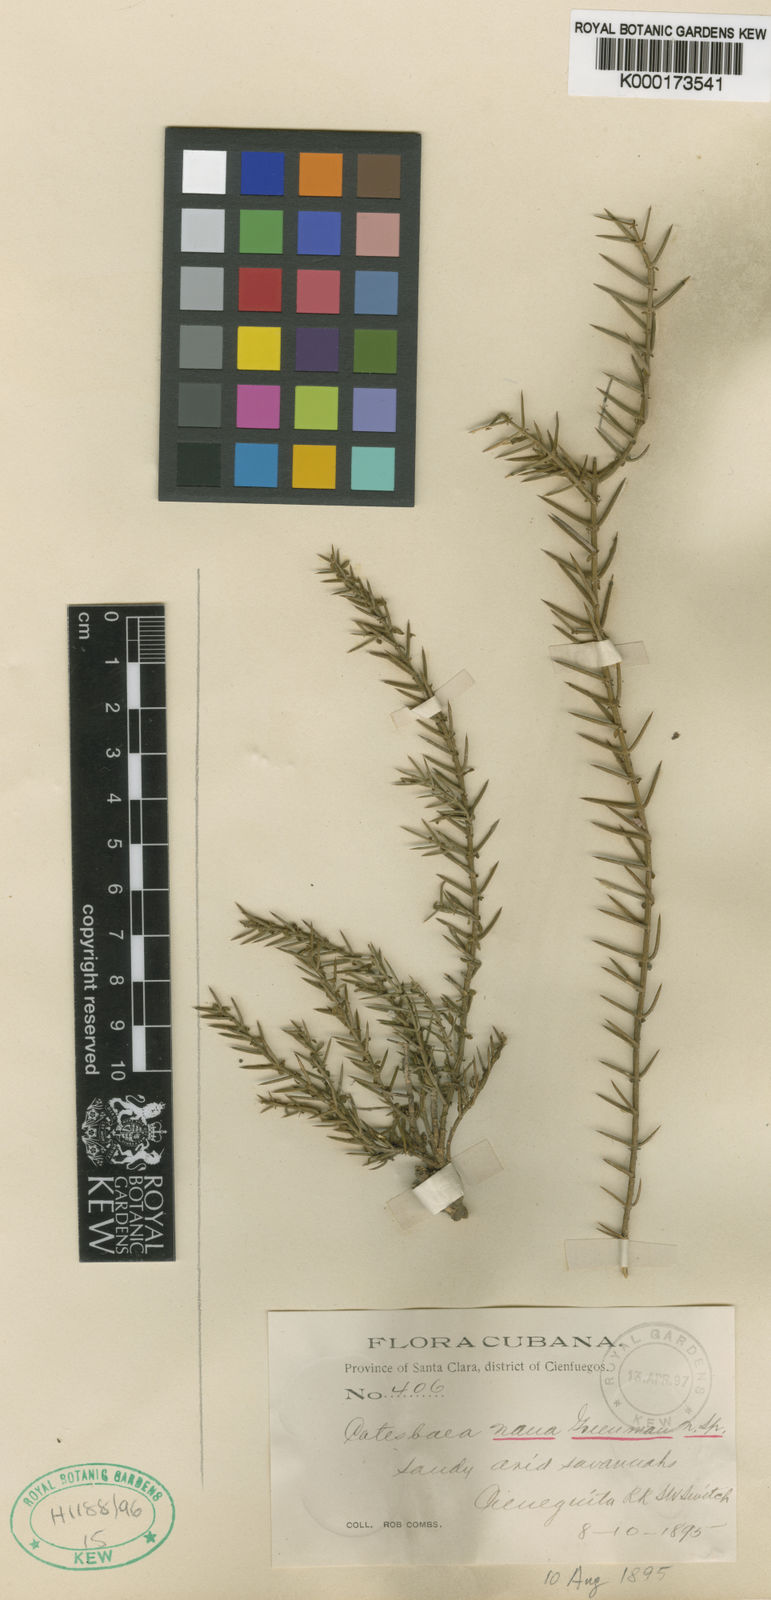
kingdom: Plantae
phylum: Tracheophyta
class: Magnoliopsida
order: Gentianales
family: Rubiaceae
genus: Catesbaea
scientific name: Catesbaea nana
